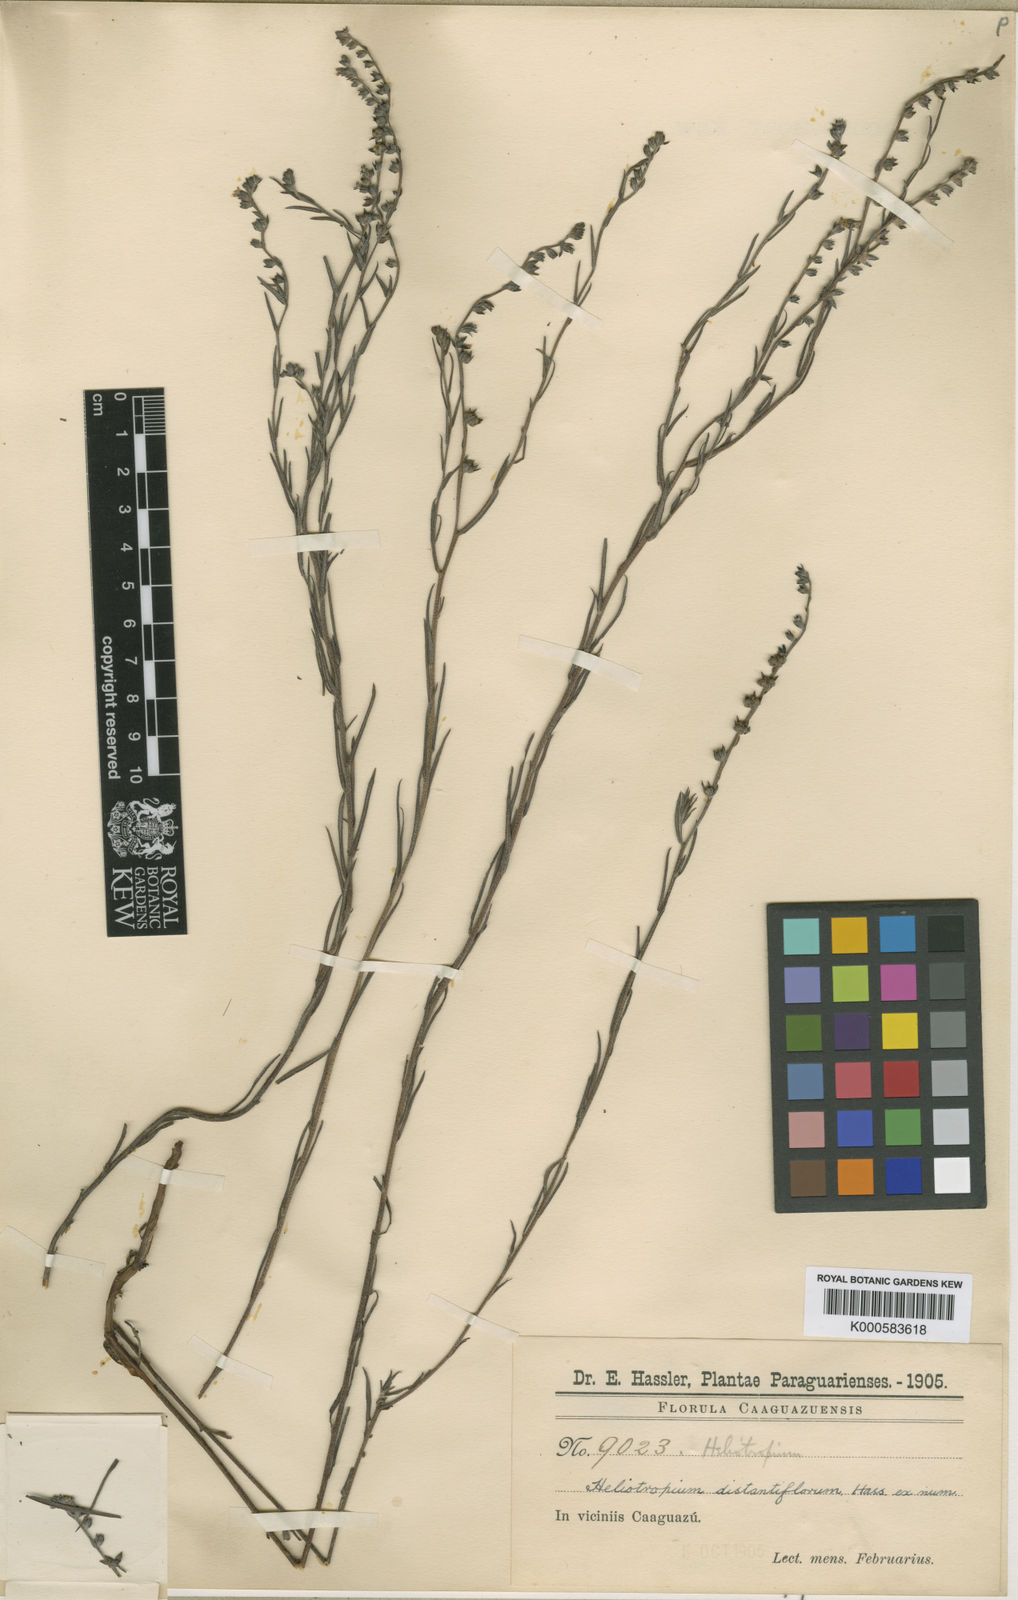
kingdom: Plantae
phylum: Tracheophyta
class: Magnoliopsida
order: Boraginales
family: Heliotropiaceae
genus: Heliotropium
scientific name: Heliotropium
